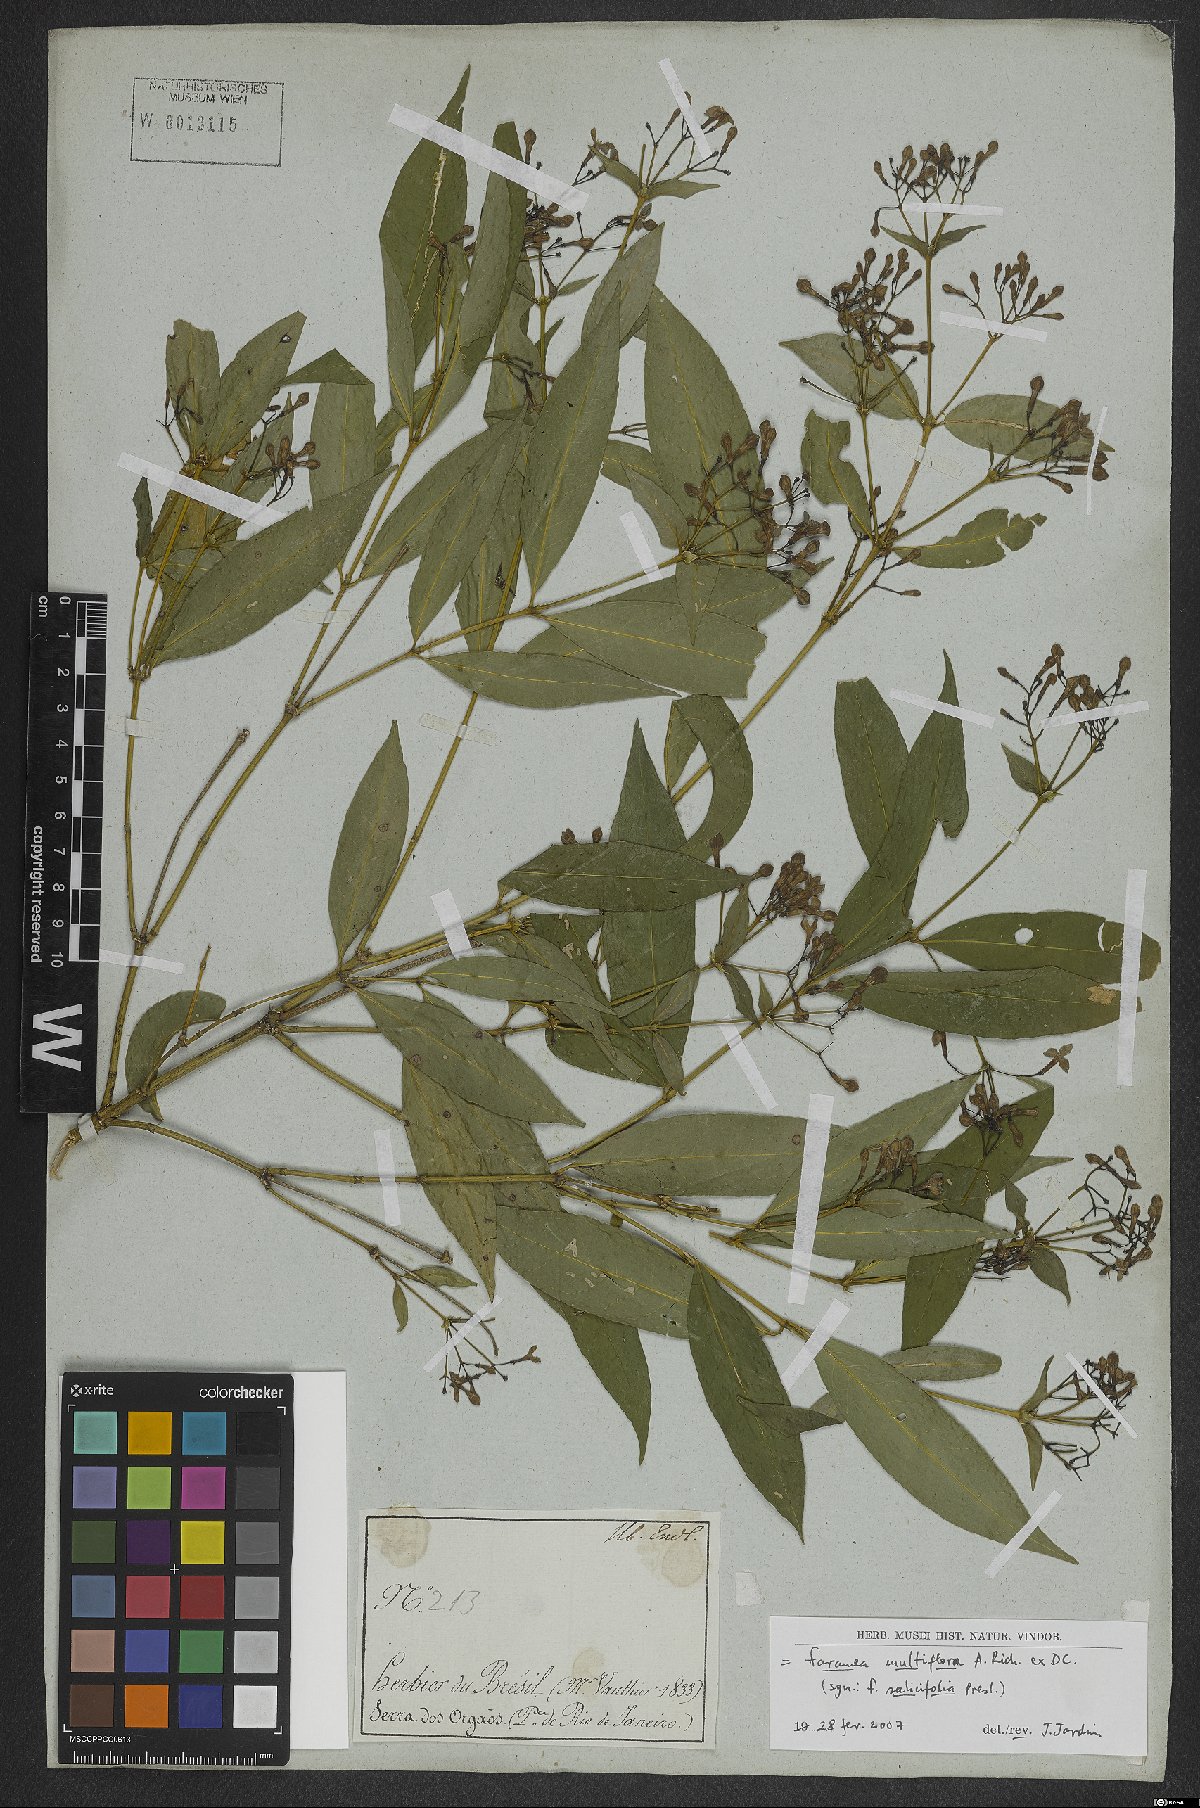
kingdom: Plantae
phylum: Tracheophyta
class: Magnoliopsida
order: Gentianales
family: Rubiaceae
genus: Faramea
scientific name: Faramea multiflora
